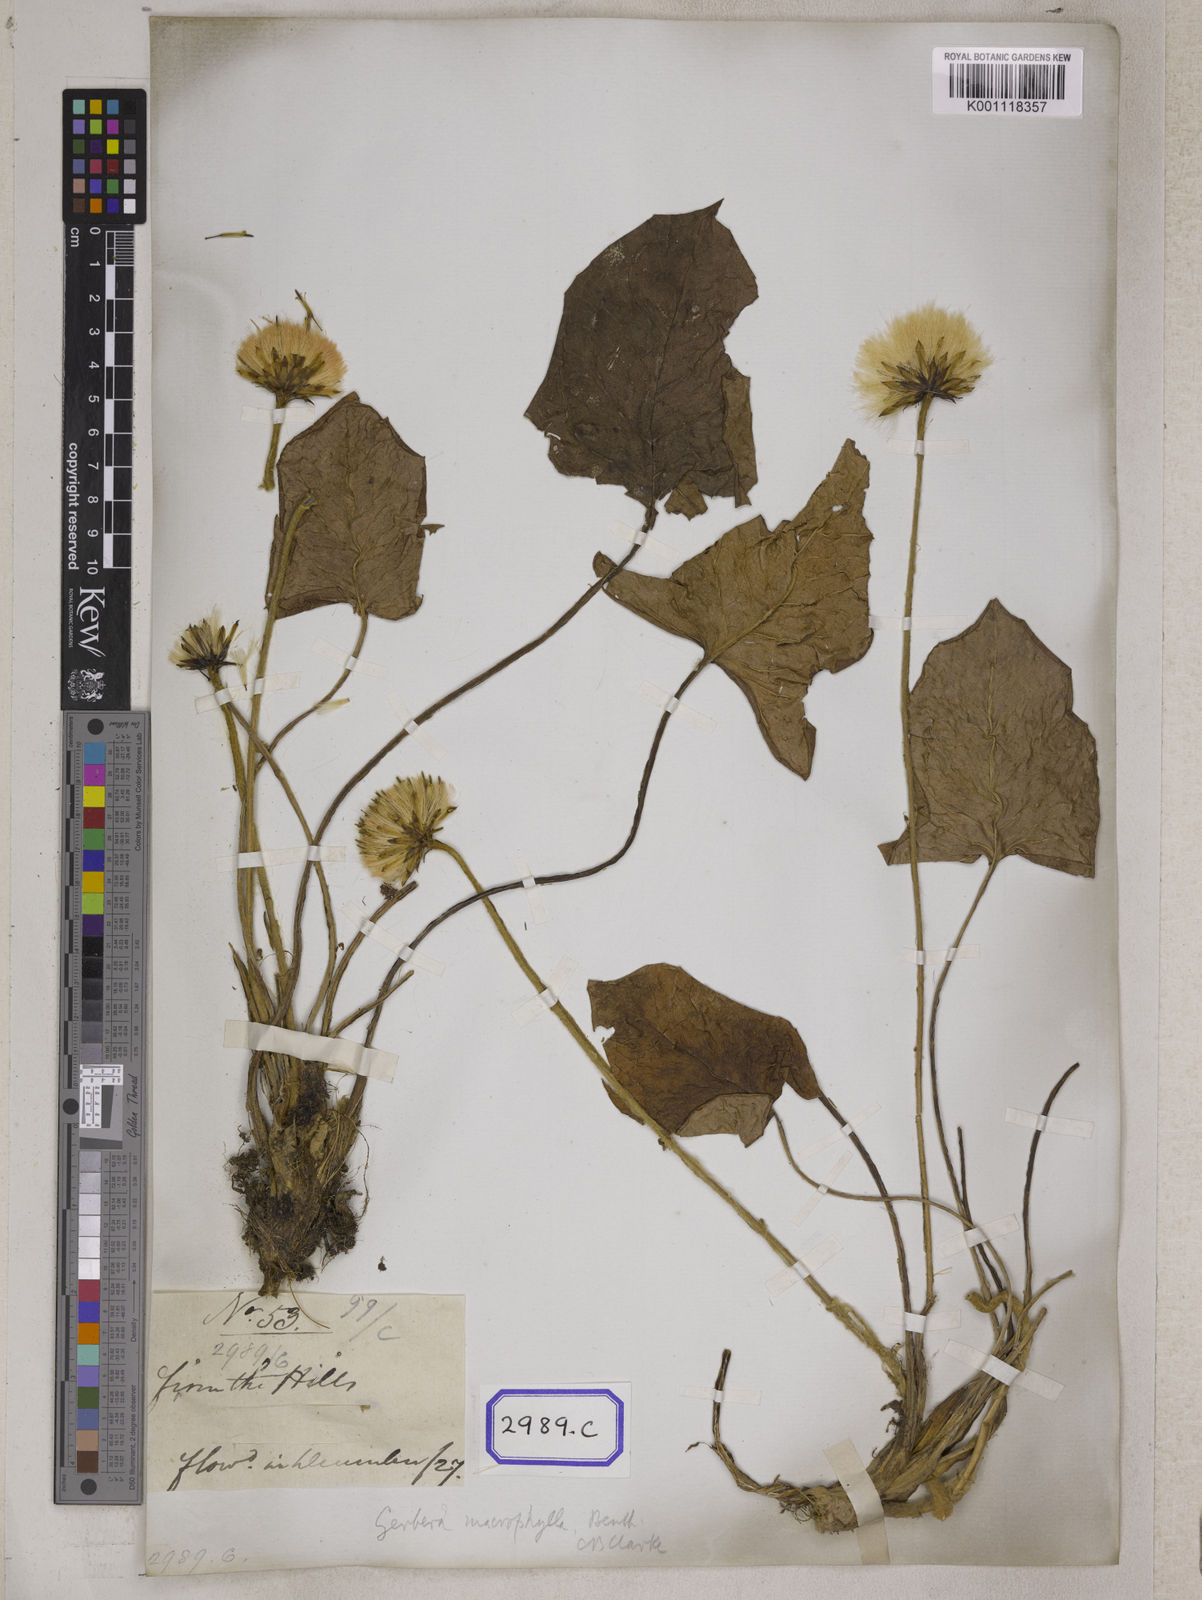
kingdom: Plantae
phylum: Tracheophyta
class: Magnoliopsida
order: Asterales
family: Asteraceae
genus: Oreoseris
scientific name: Oreoseris maxima
